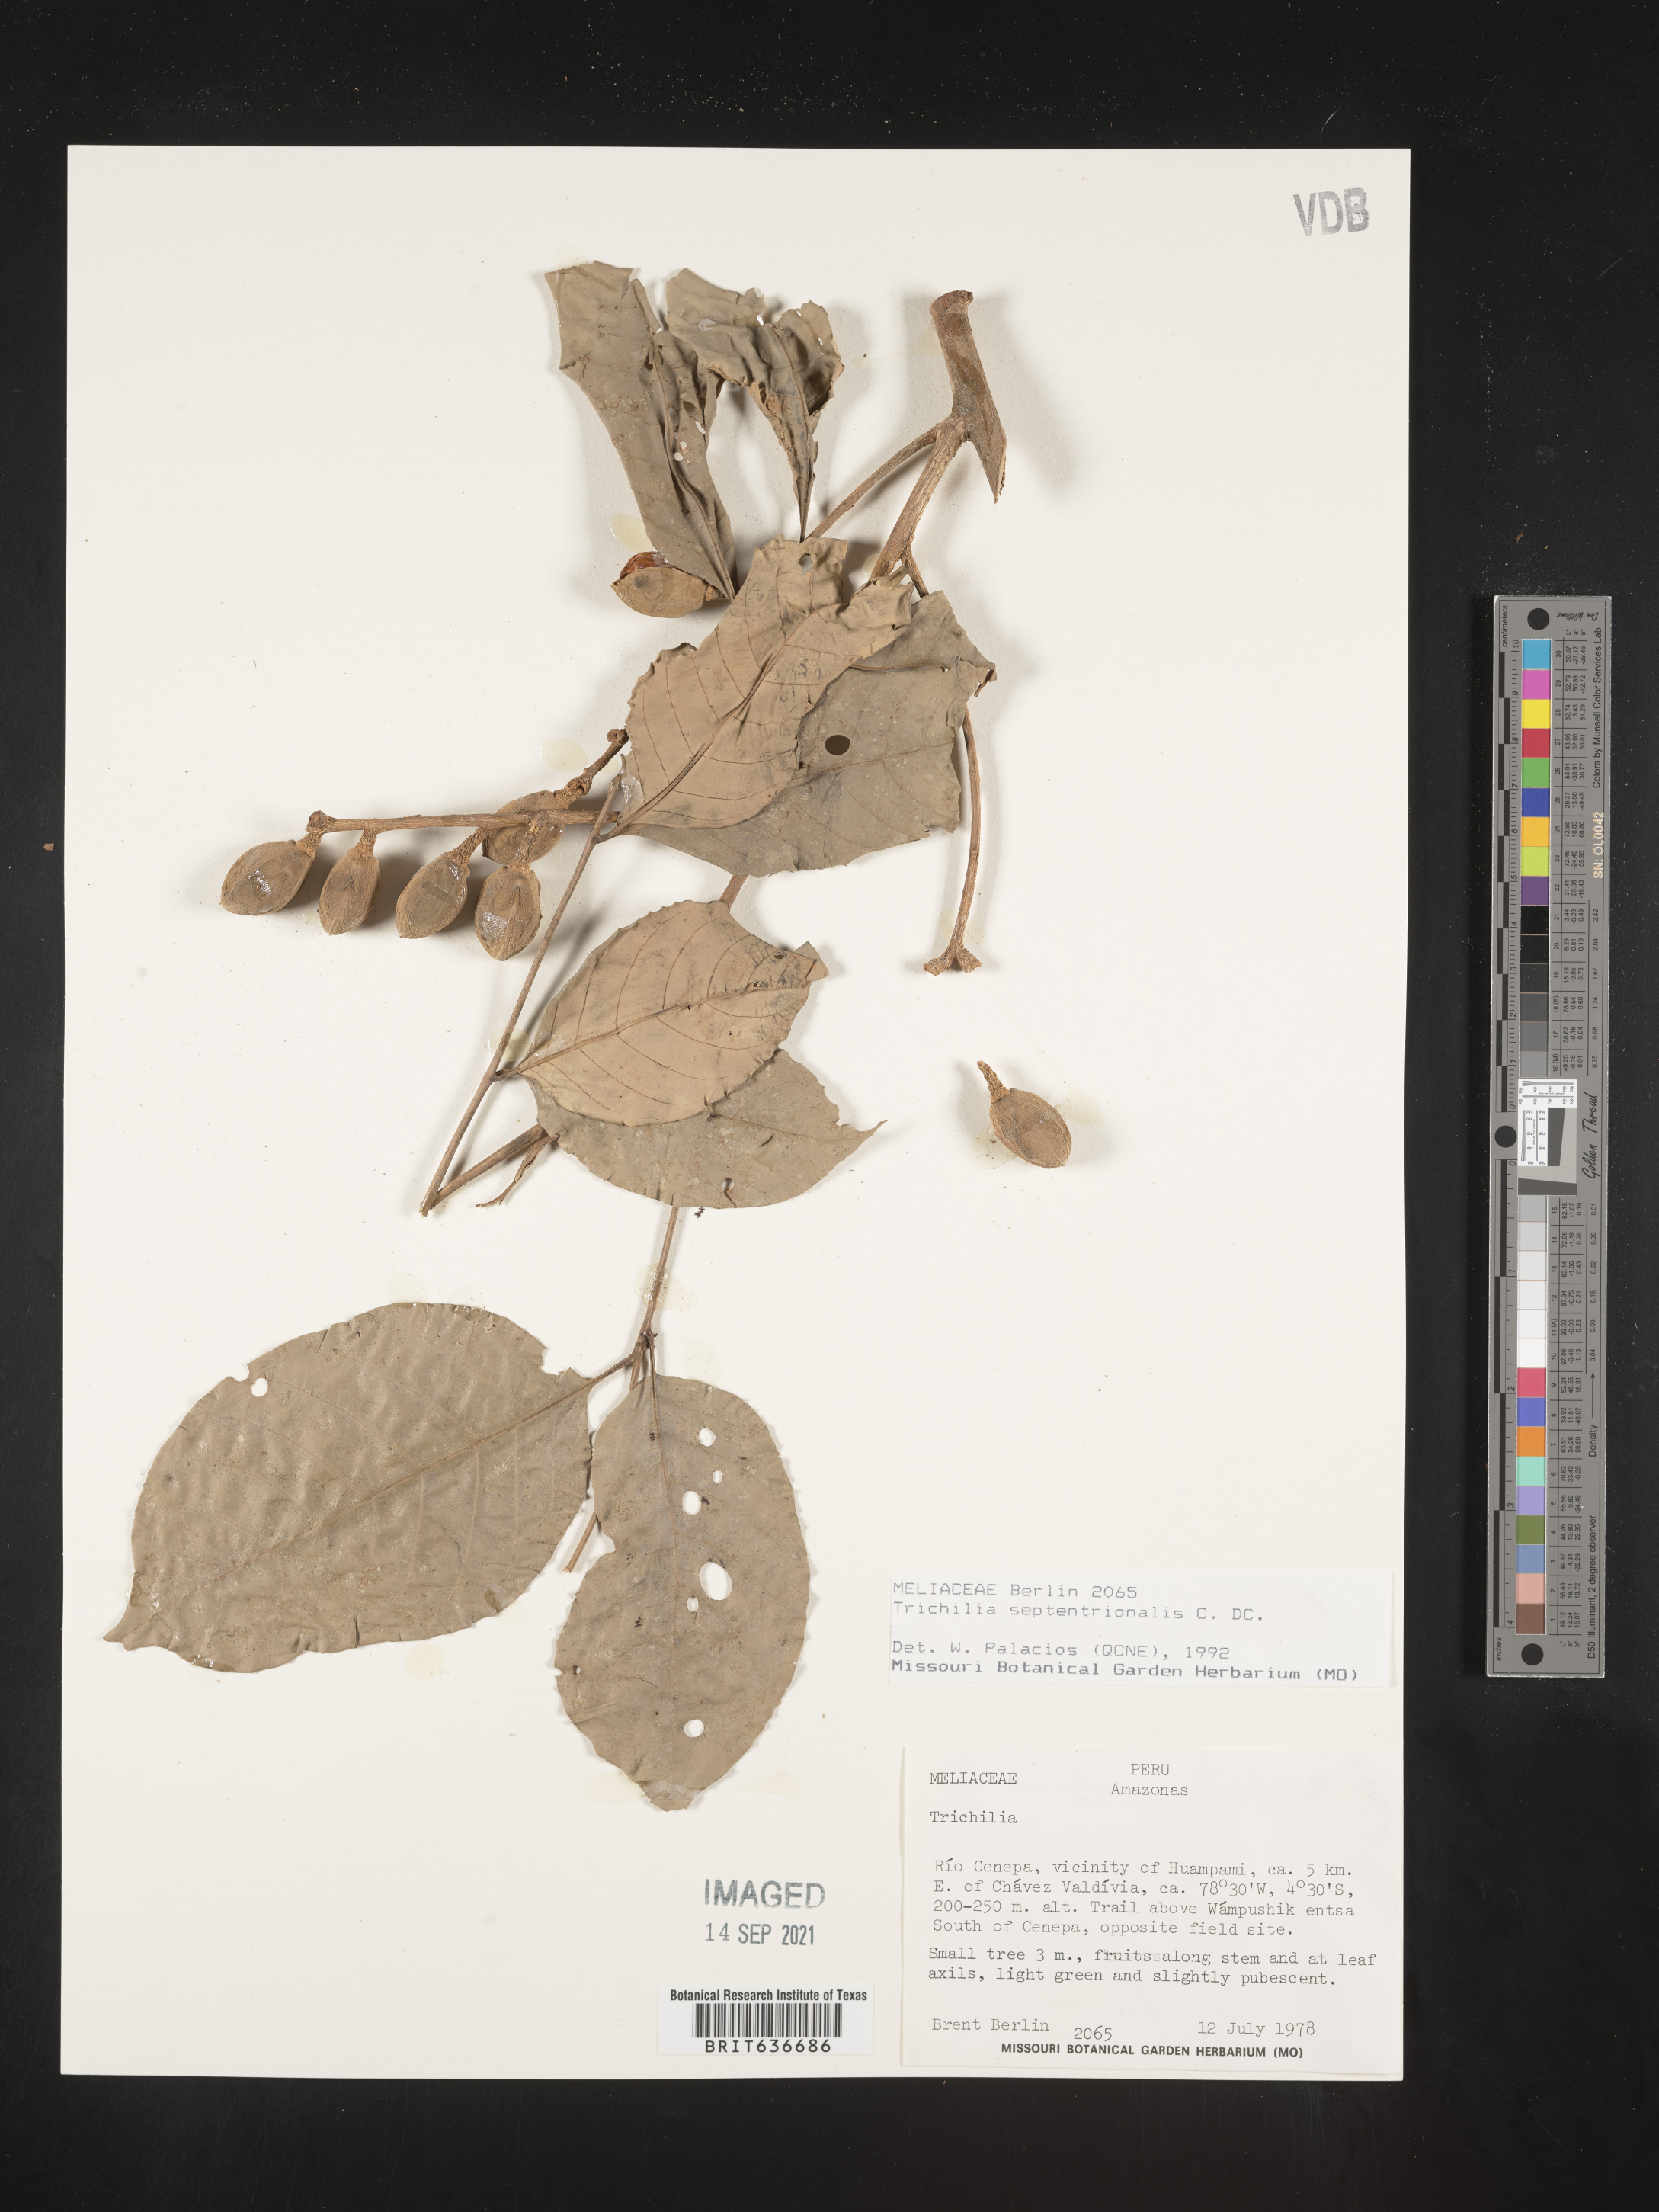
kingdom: Plantae
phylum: Tracheophyta
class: Magnoliopsida
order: Sapindales
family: Meliaceae
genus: Trichilia
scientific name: Trichilia
